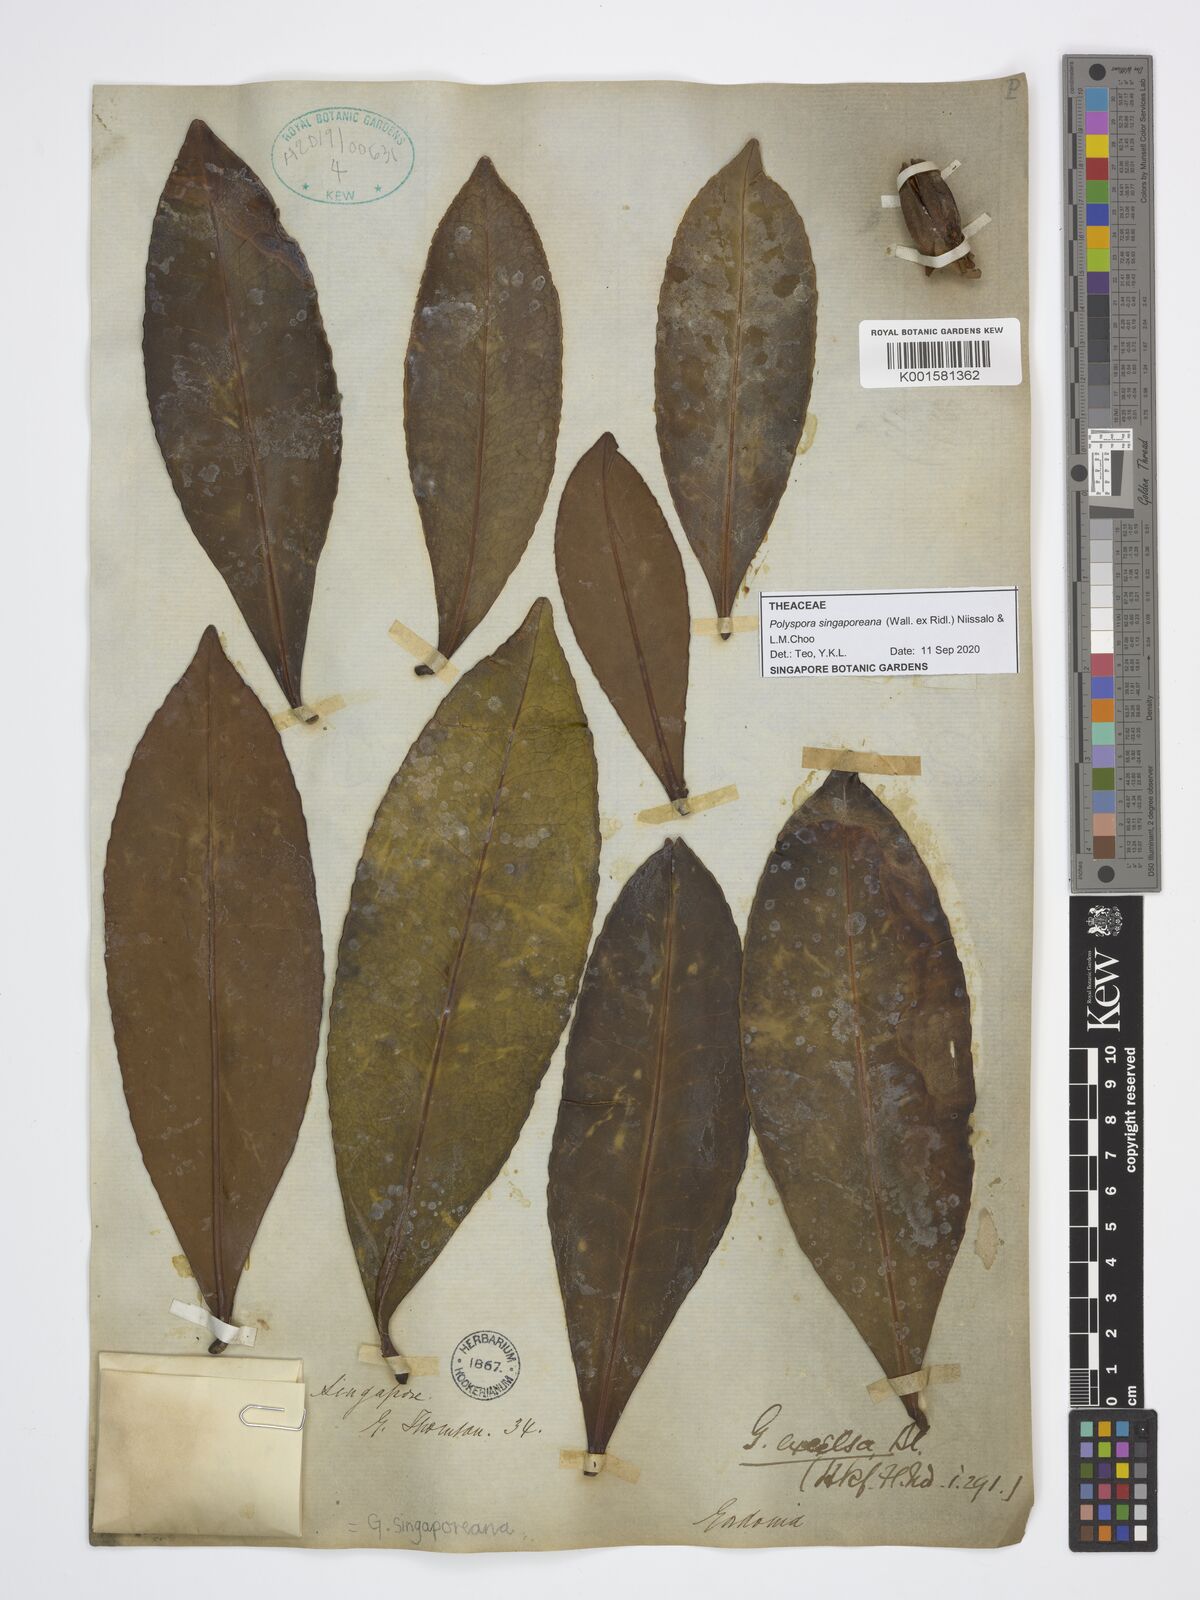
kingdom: Plantae
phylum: Tracheophyta
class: Magnoliopsida
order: Ericales
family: Theaceae
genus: Polyspora
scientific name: Polyspora
